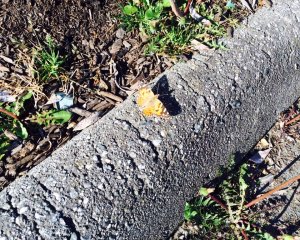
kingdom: Animalia
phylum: Arthropoda
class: Insecta
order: Lepidoptera
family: Nymphalidae
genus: Vanessa
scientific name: Vanessa cardui
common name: Painted Lady
